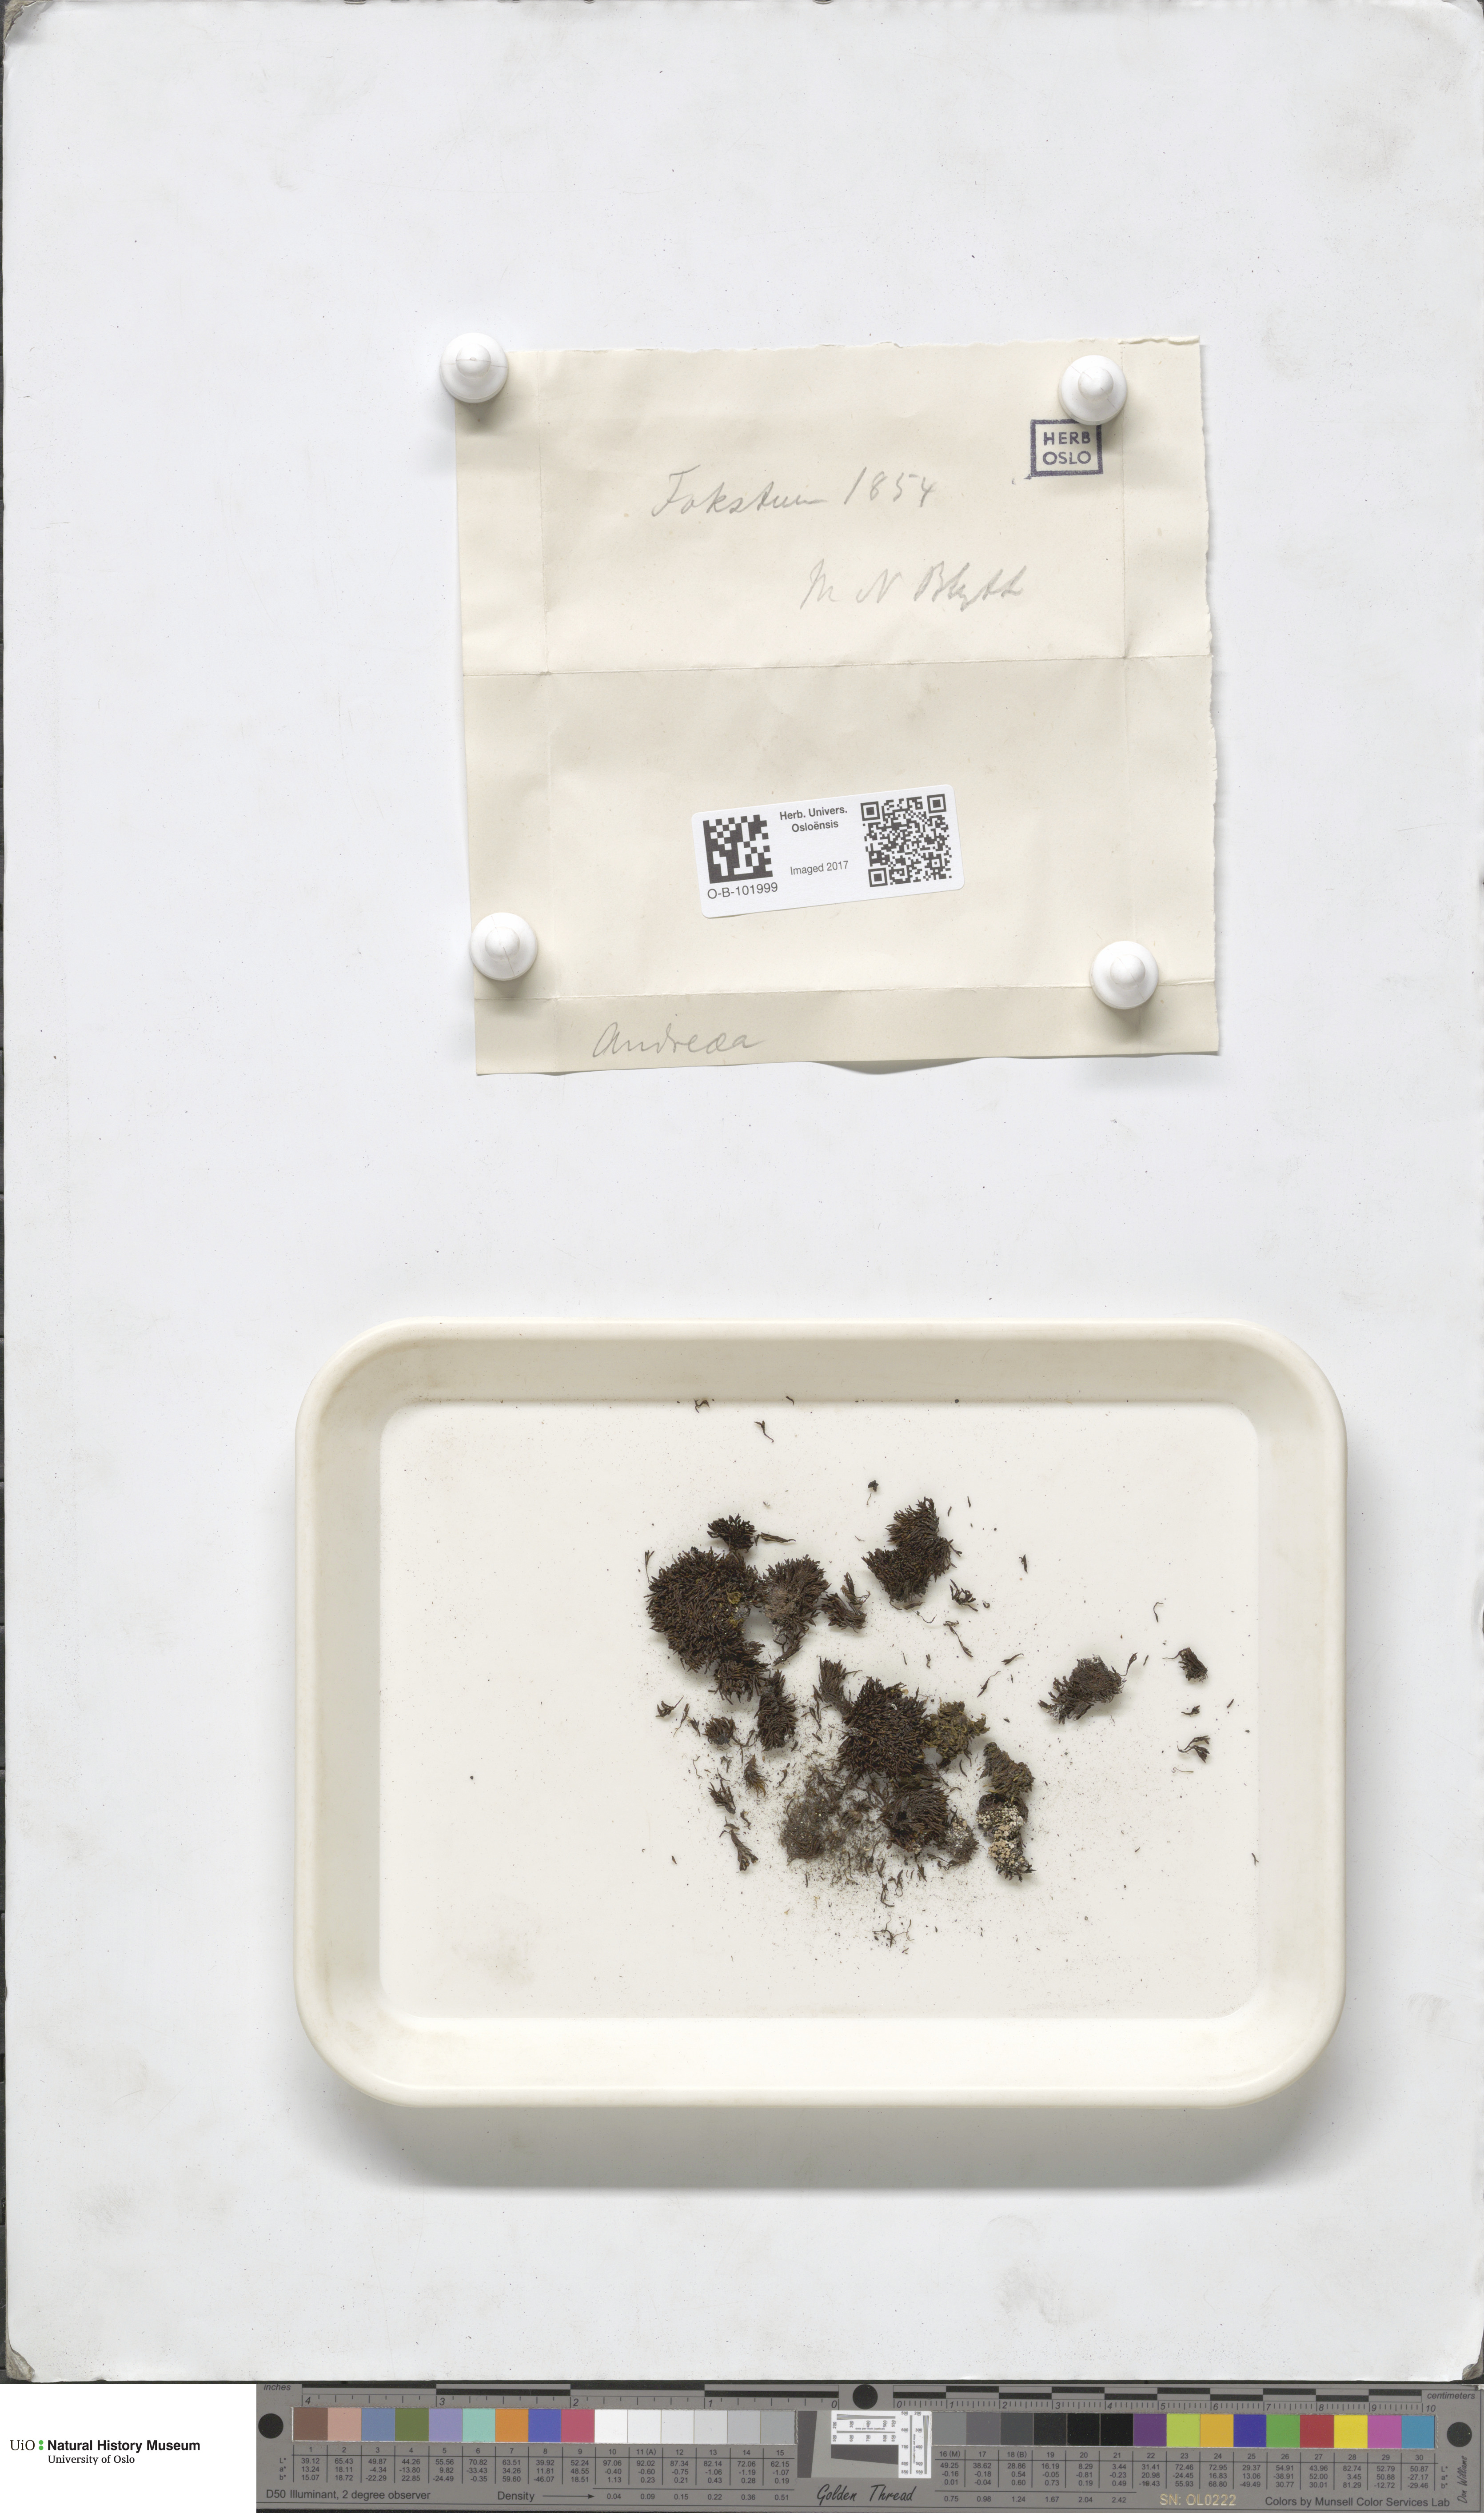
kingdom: Plantae
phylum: Bryophyta
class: Andreaeopsida
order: Andreaeales
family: Andreaeaceae
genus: Andreaea
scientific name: Andreaea
